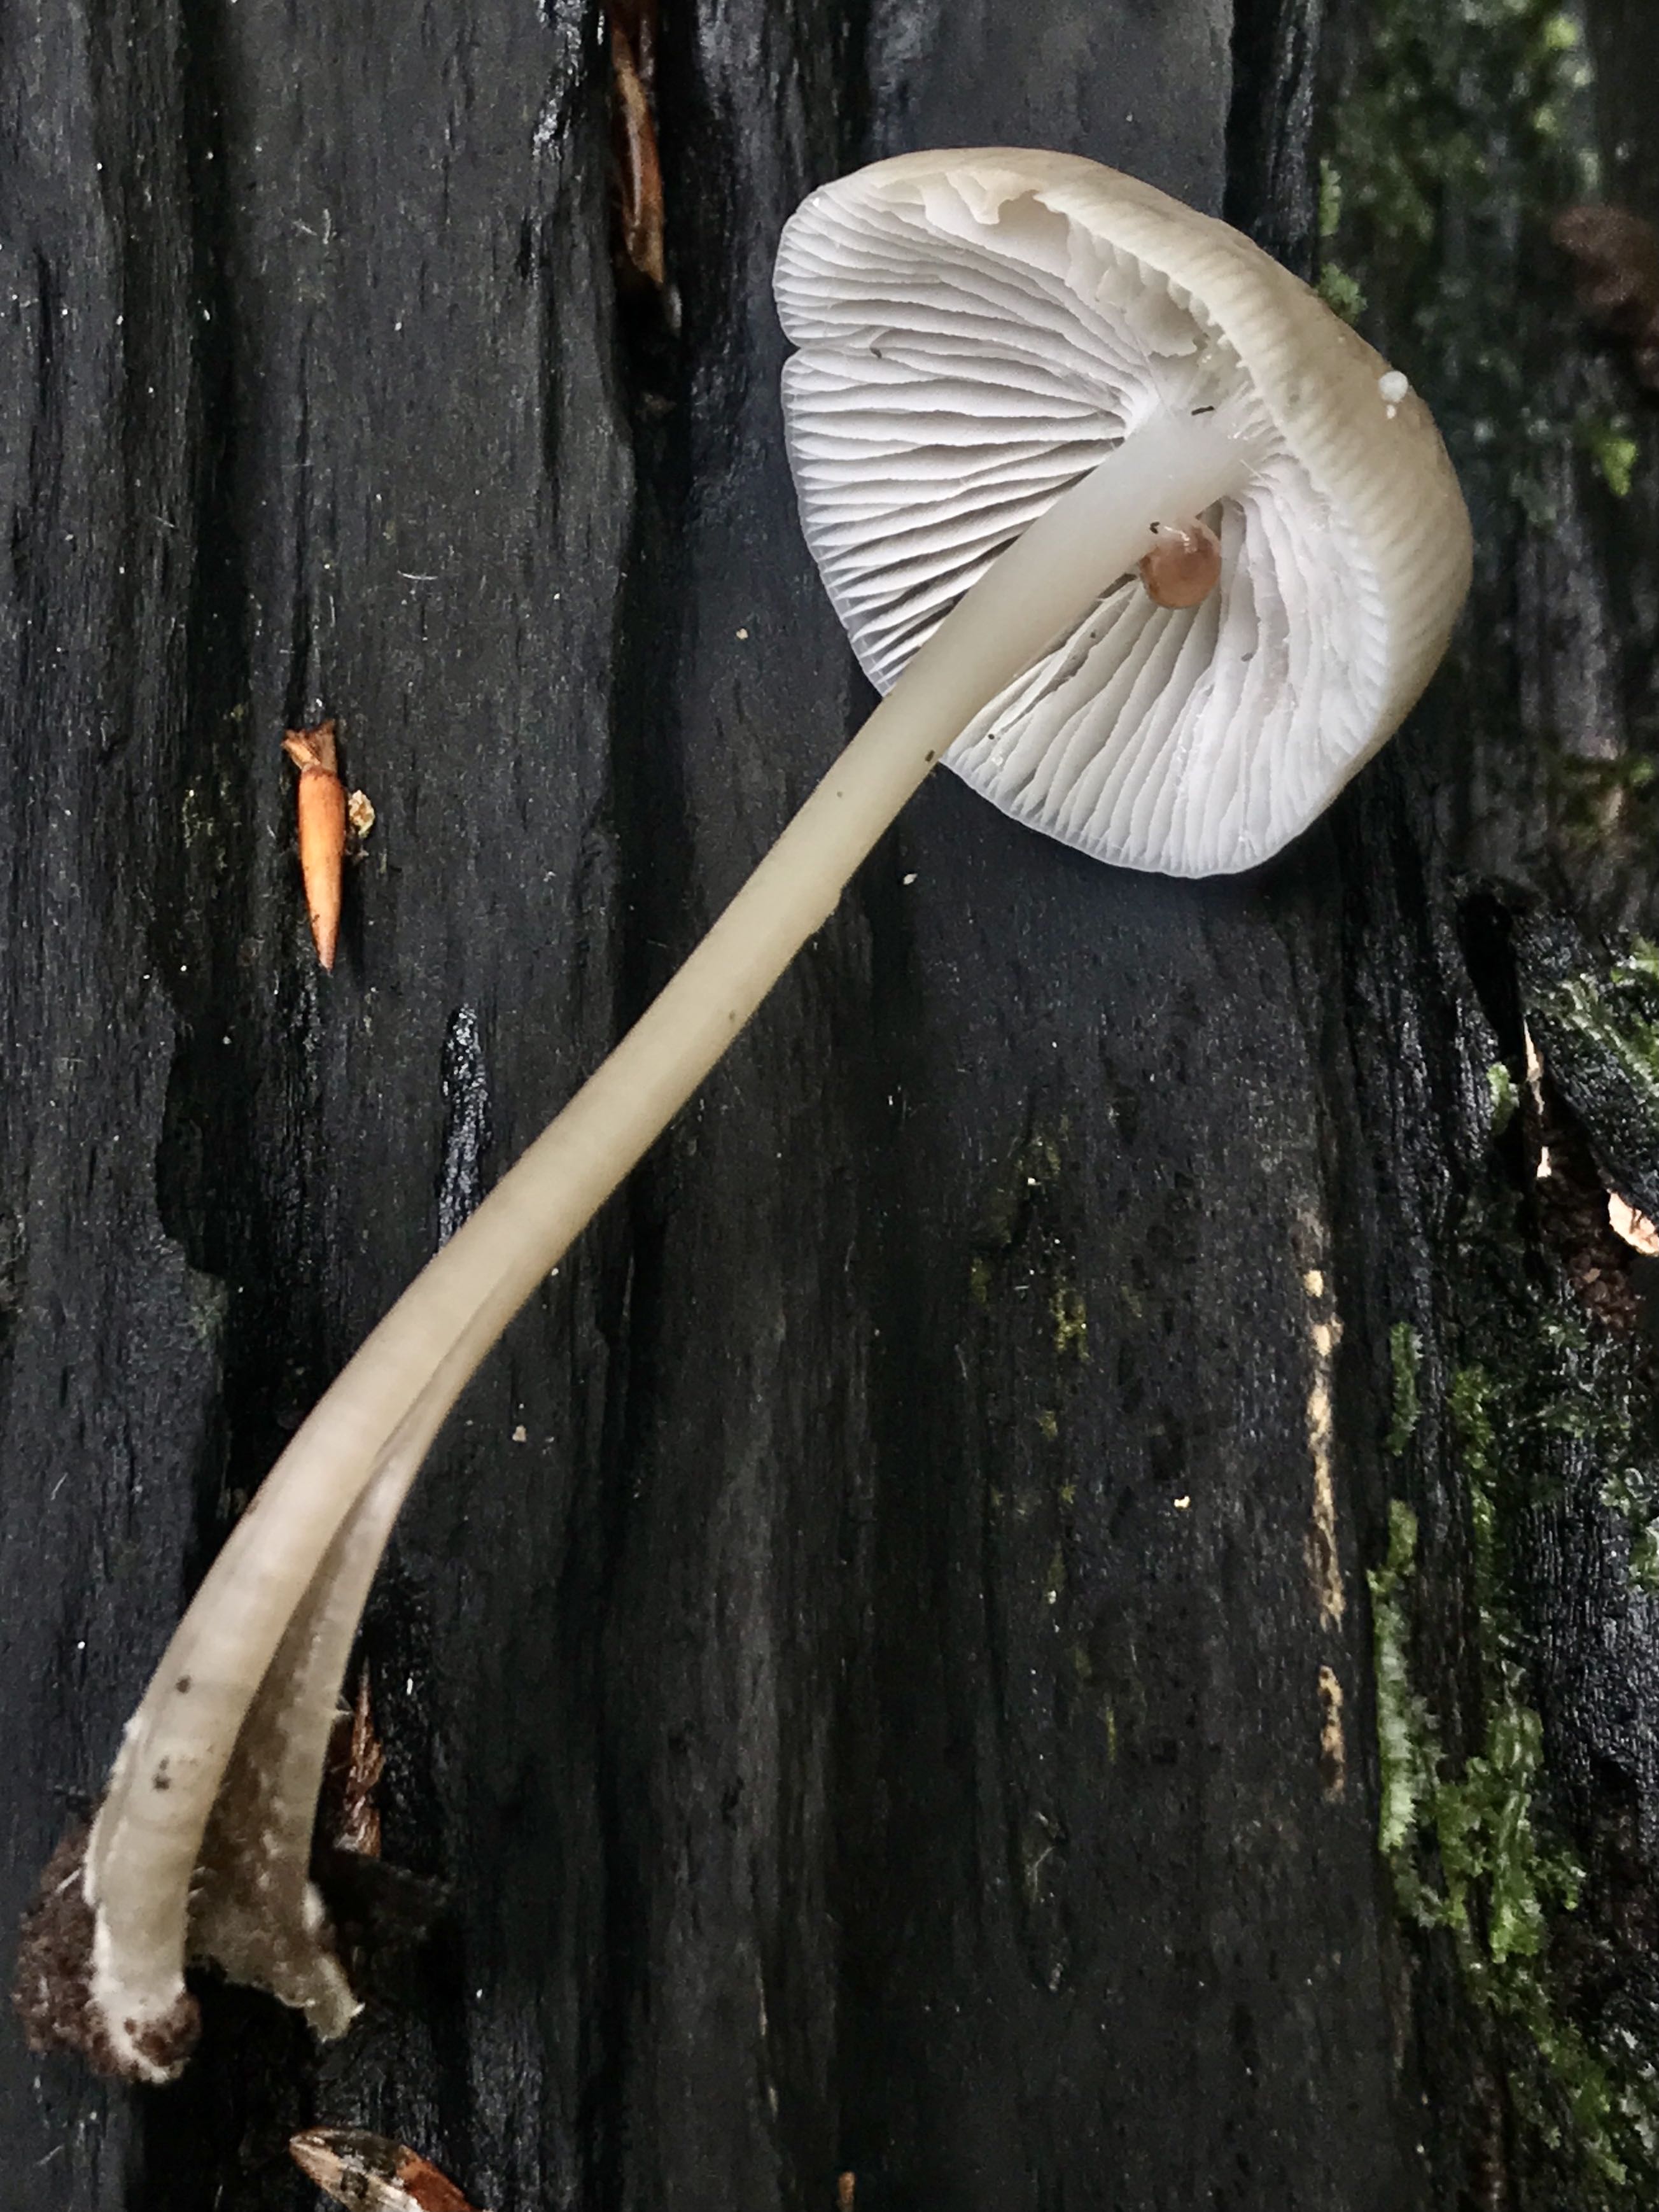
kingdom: Fungi
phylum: Basidiomycota
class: Agaricomycetes
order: Agaricales
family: Mycenaceae
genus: Mycena
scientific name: Mycena galericulata
